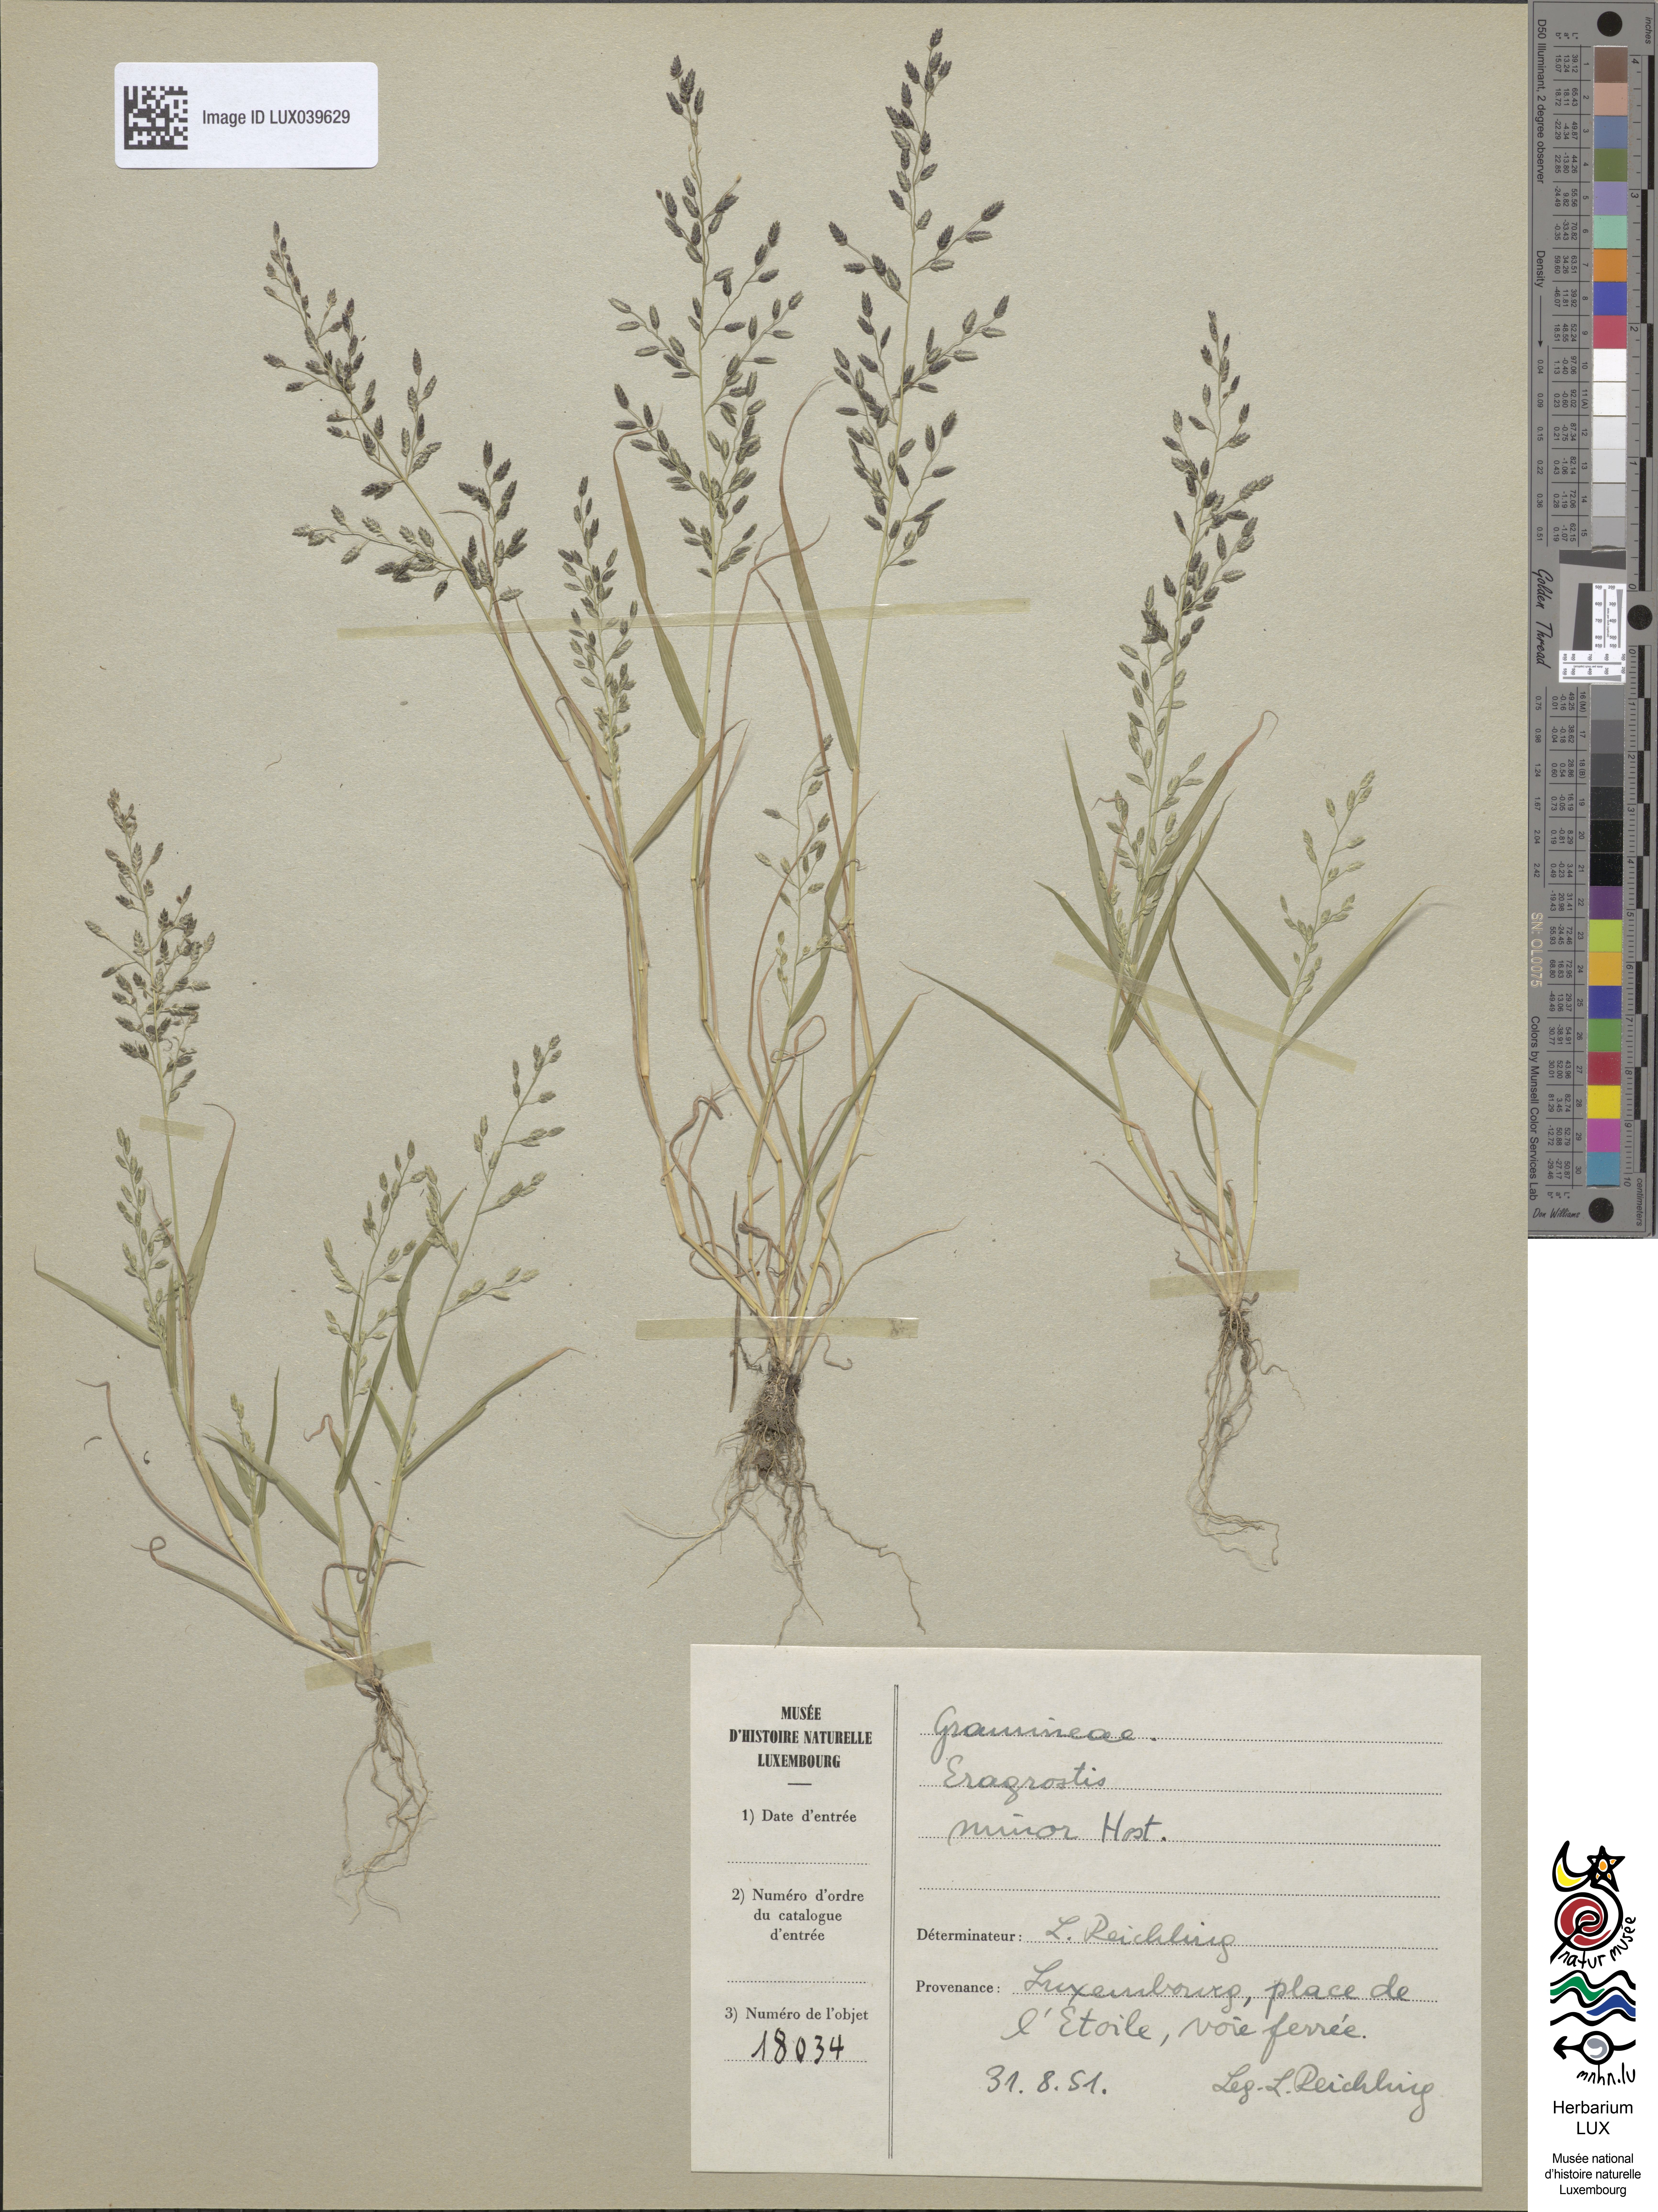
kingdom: Plantae
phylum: Tracheophyta
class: Liliopsida
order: Poales
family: Poaceae
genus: Eragrostis
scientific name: Eragrostis minor
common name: Small love-grass
